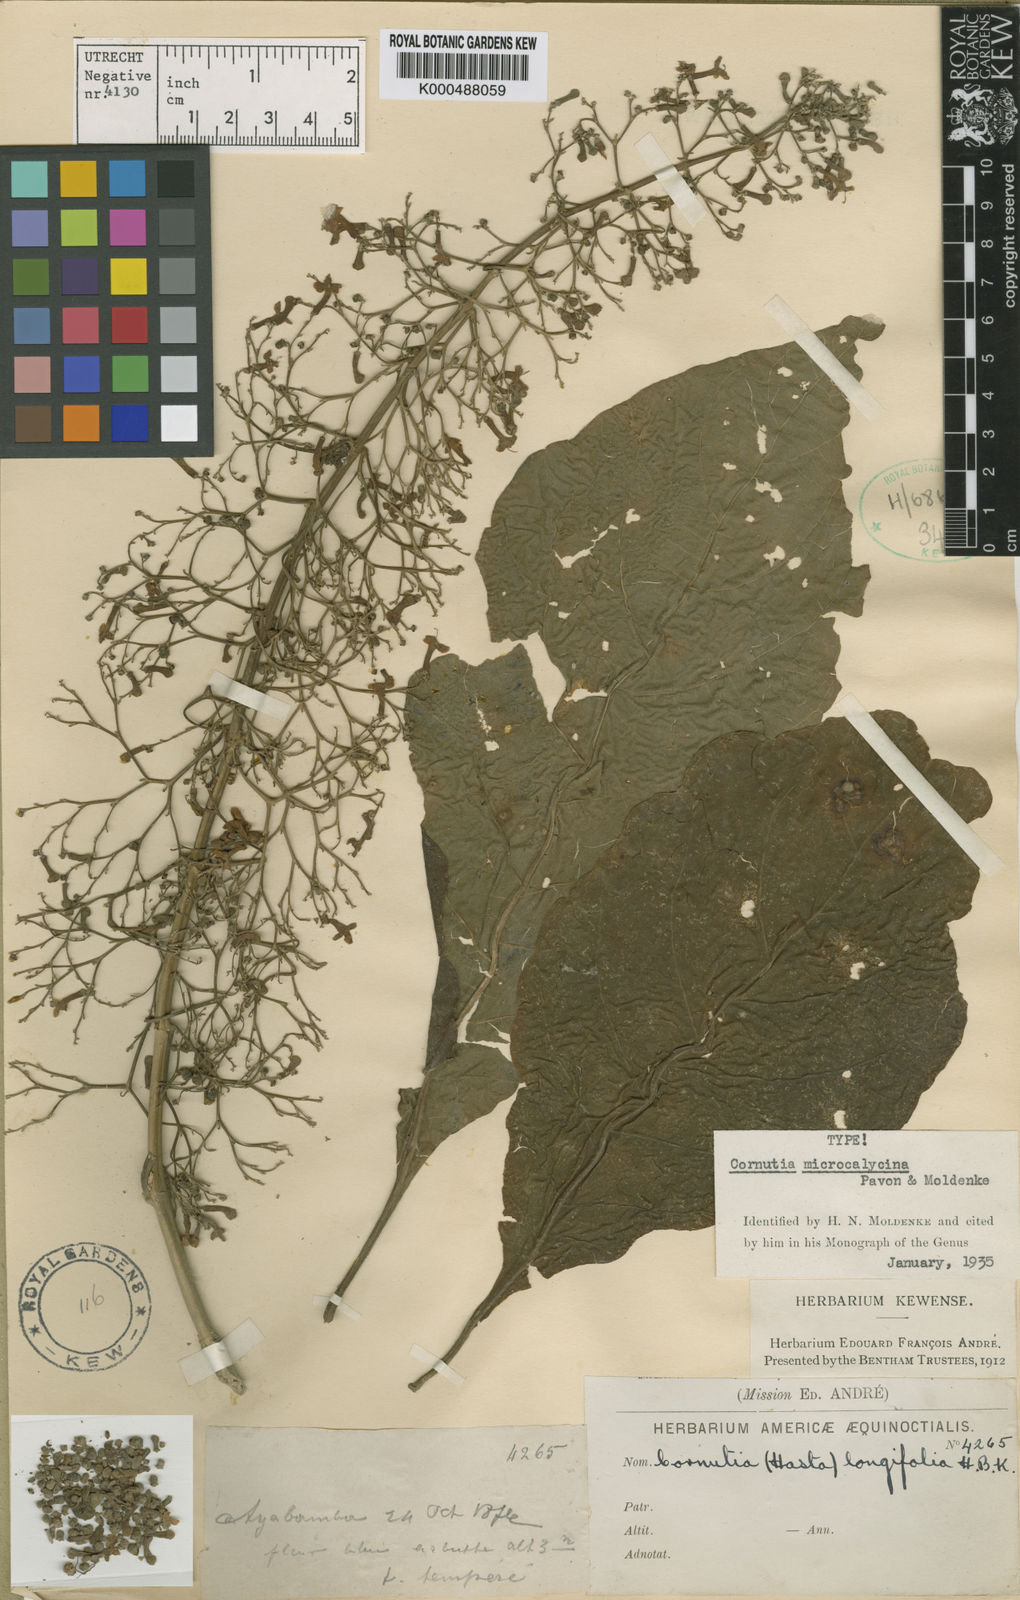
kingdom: Plantae
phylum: Tracheophyta
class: Magnoliopsida
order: Lamiales
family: Lamiaceae
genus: Cornutia
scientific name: Cornutia pyramidata
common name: Azulejo
